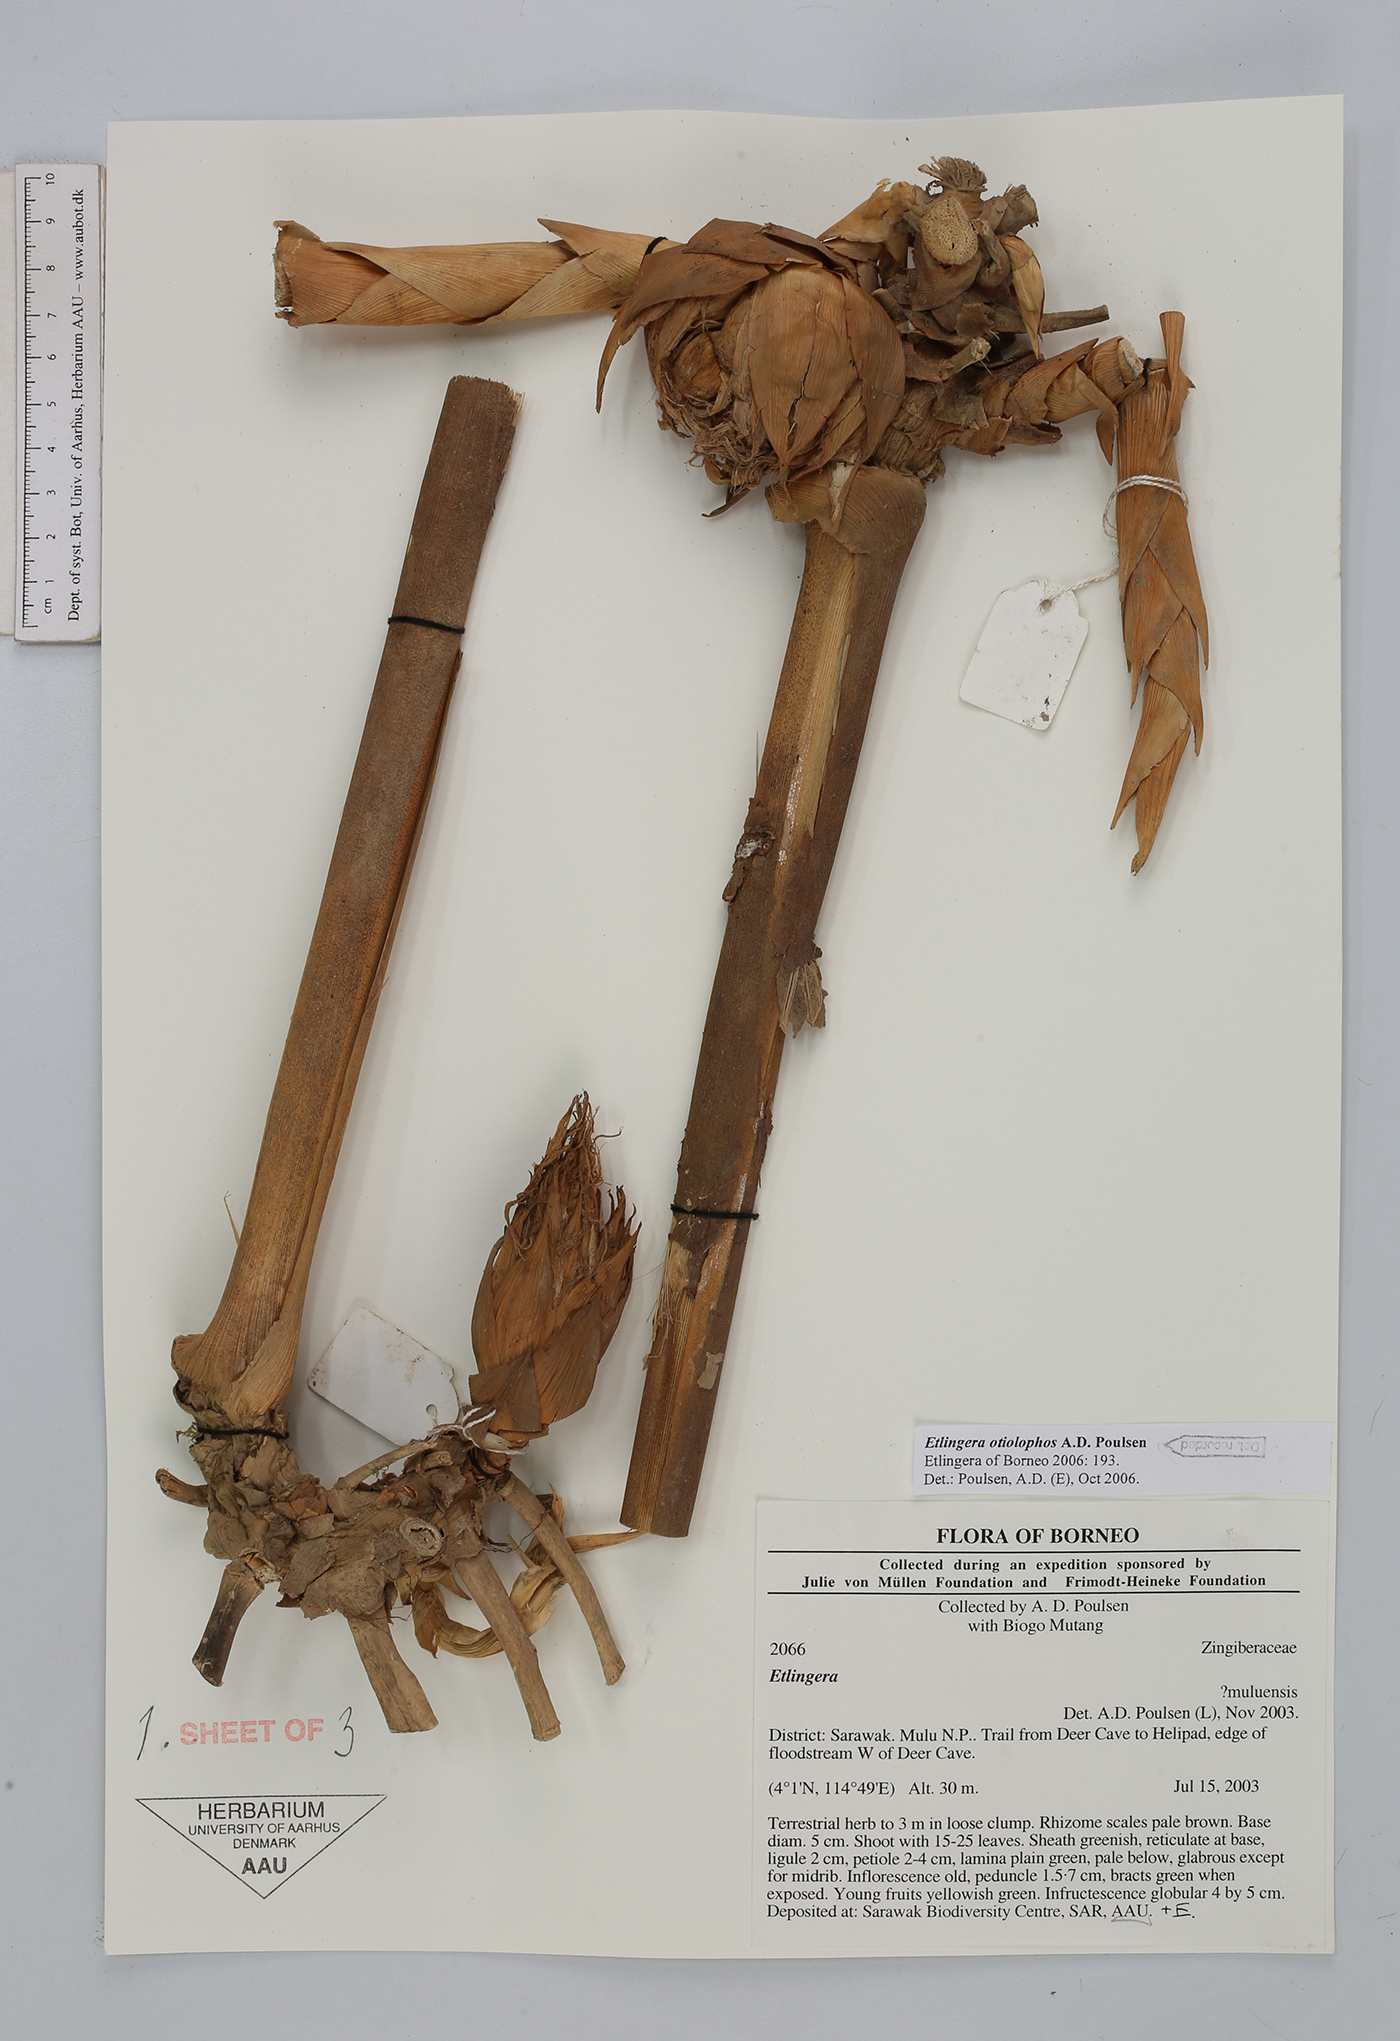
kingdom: Plantae
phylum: Tracheophyta
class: Liliopsida
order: Zingiberales
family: Zingiberaceae
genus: Etlingera
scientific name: Etlingera otiolophos
